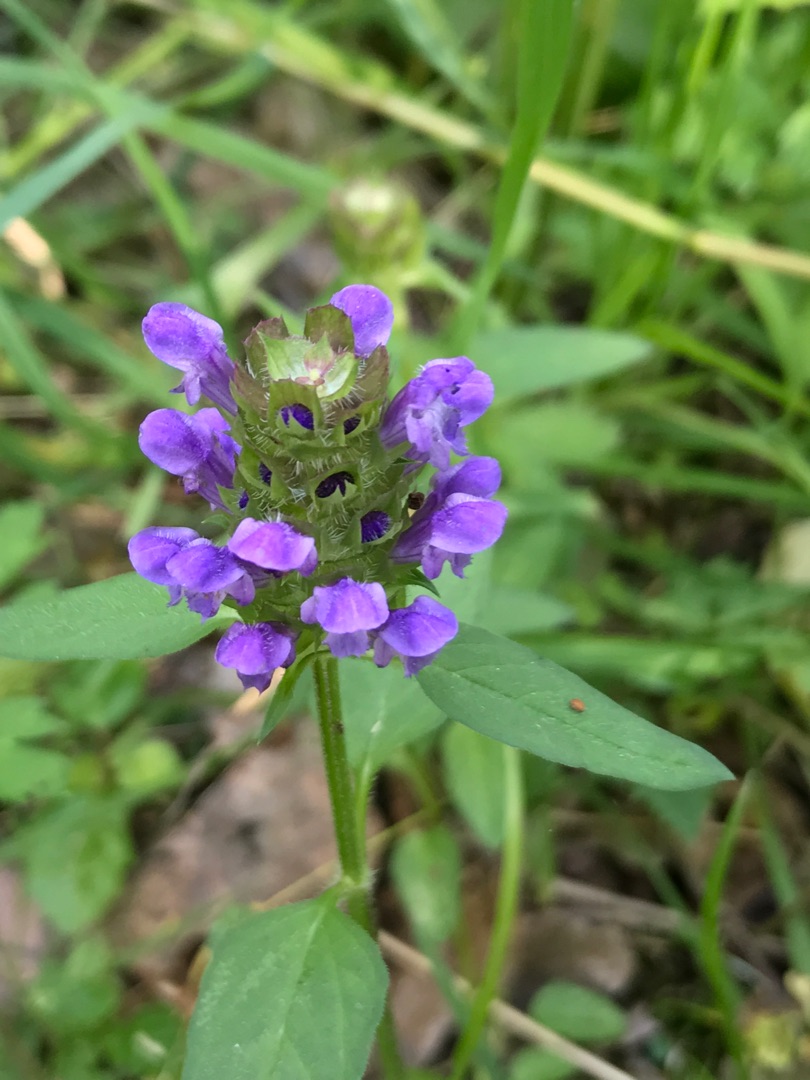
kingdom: Plantae
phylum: Tracheophyta
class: Magnoliopsida
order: Lamiales
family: Lamiaceae
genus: Prunella
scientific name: Prunella vulgaris
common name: Almindelig brunelle
